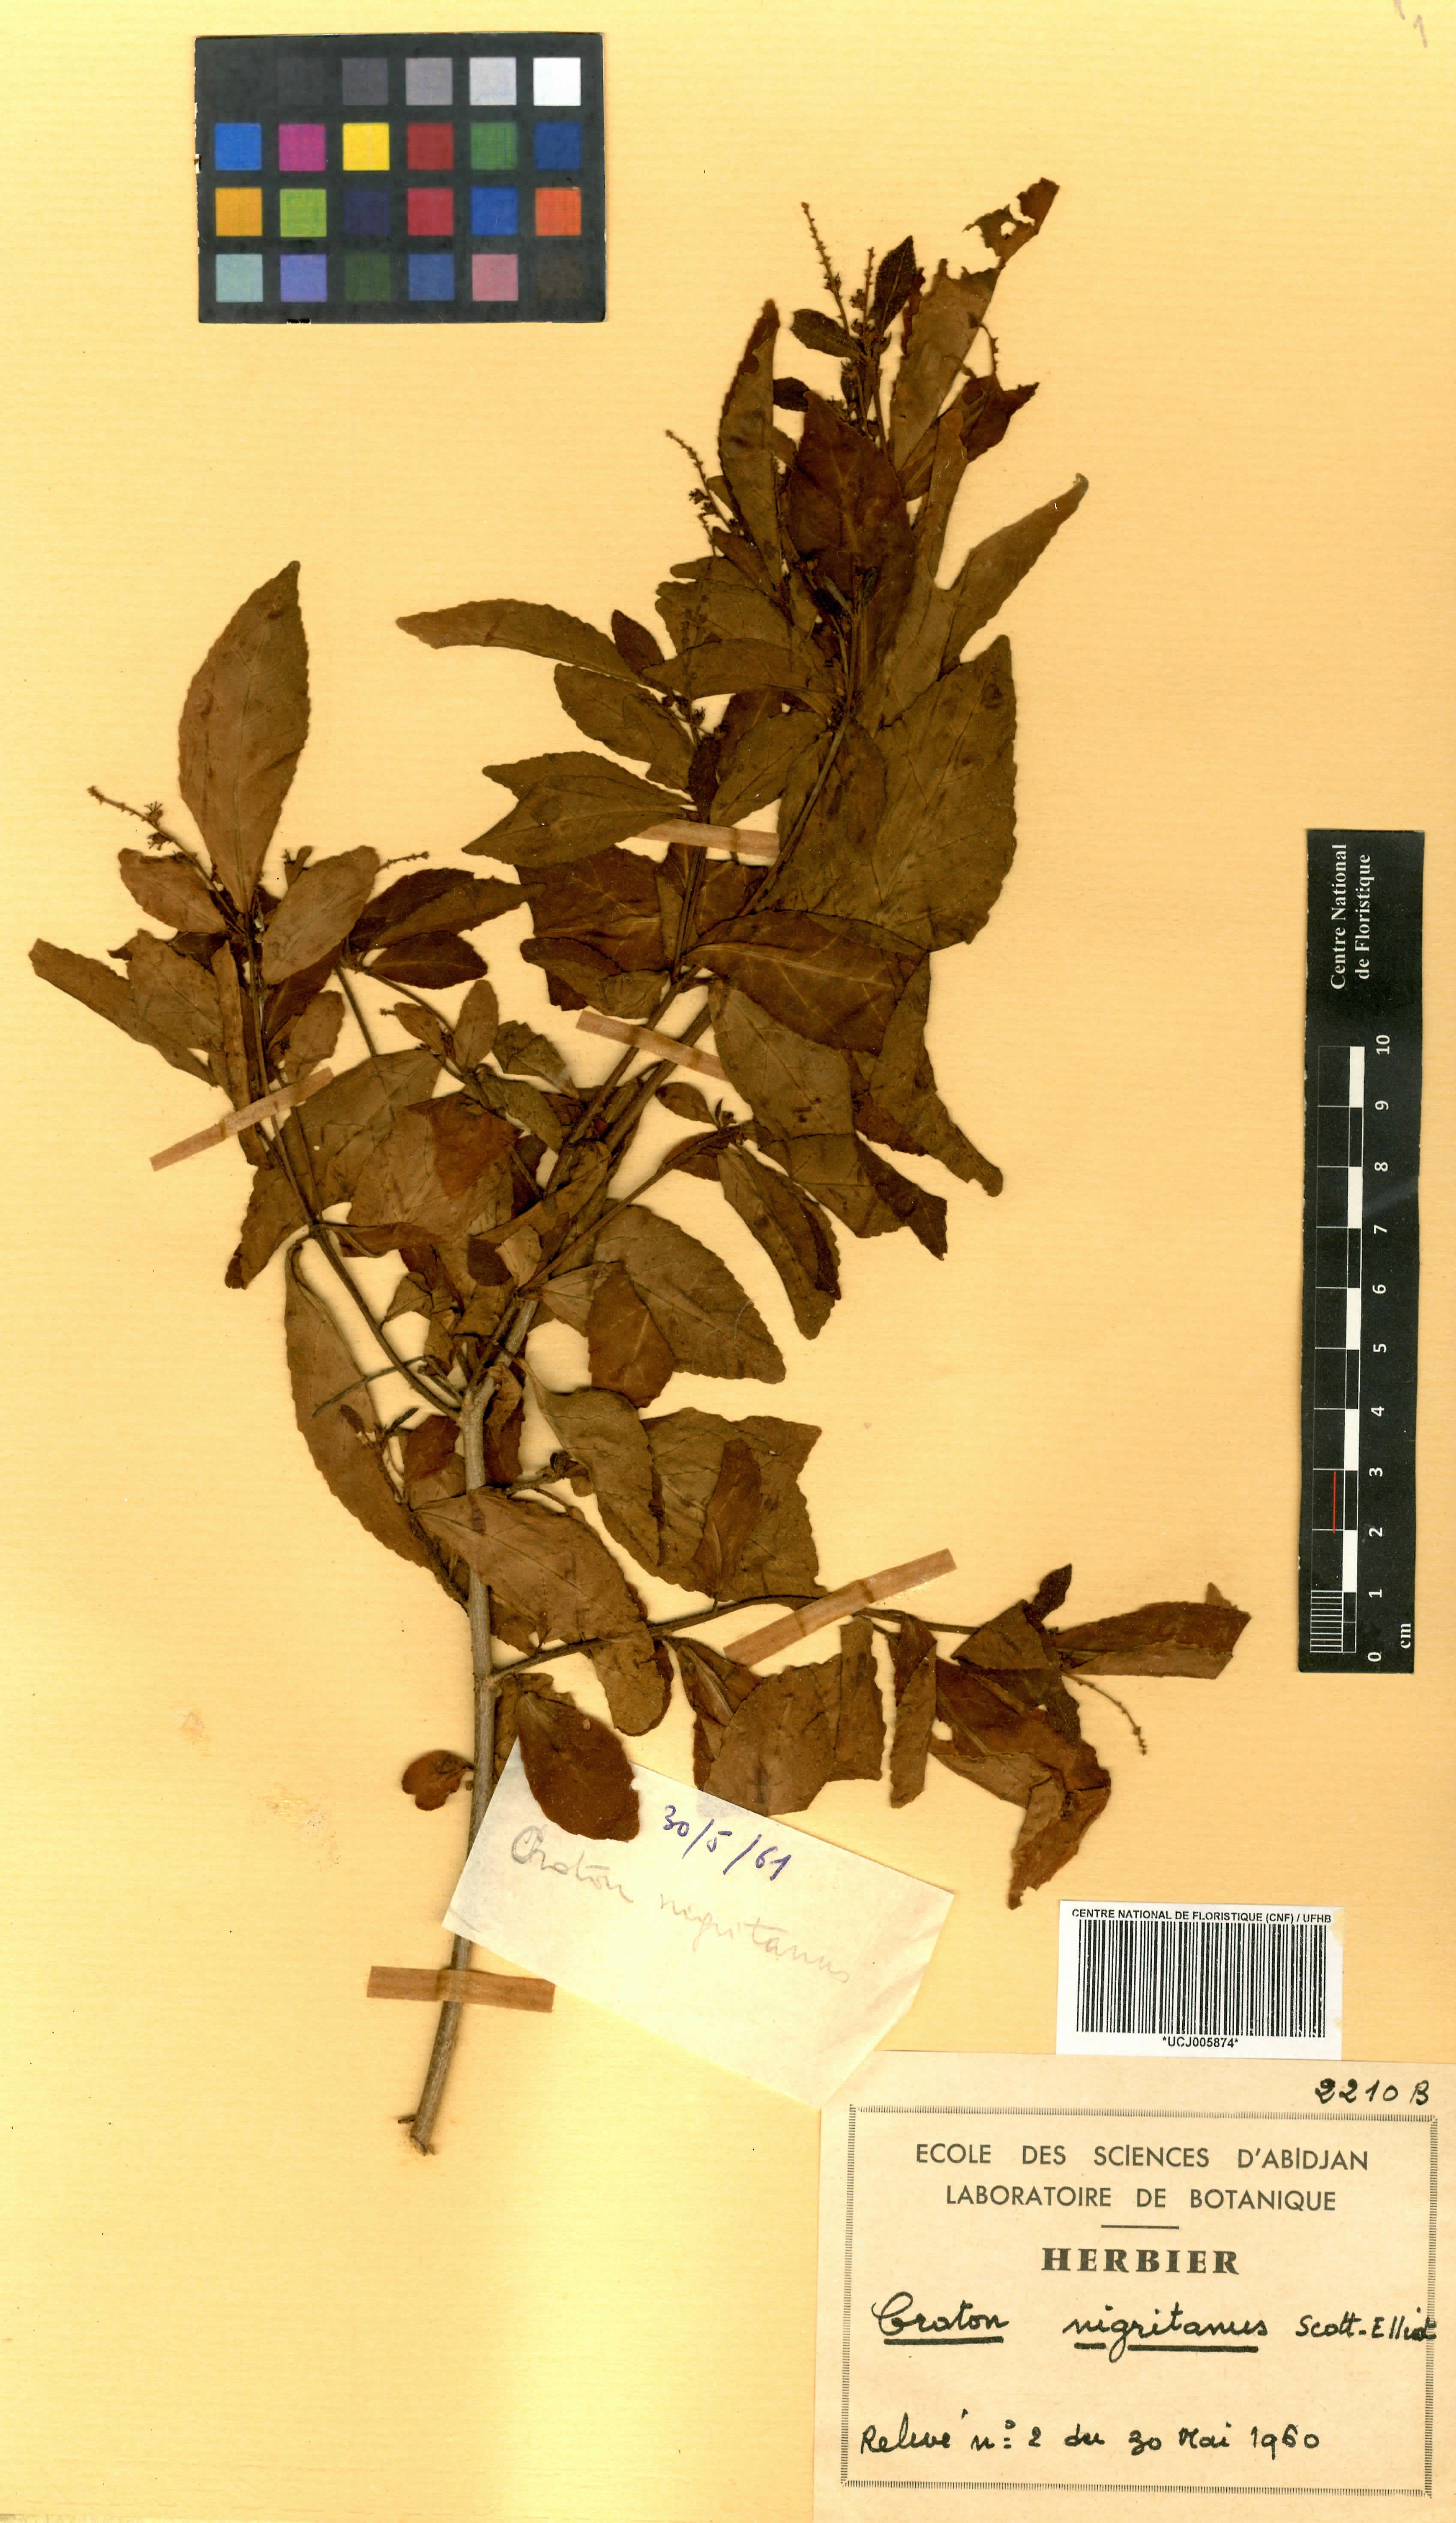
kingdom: Plantae
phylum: Tracheophyta
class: Magnoliopsida
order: Malpighiales
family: Euphorbiaceae
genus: Croton
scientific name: Croton nigritanus
